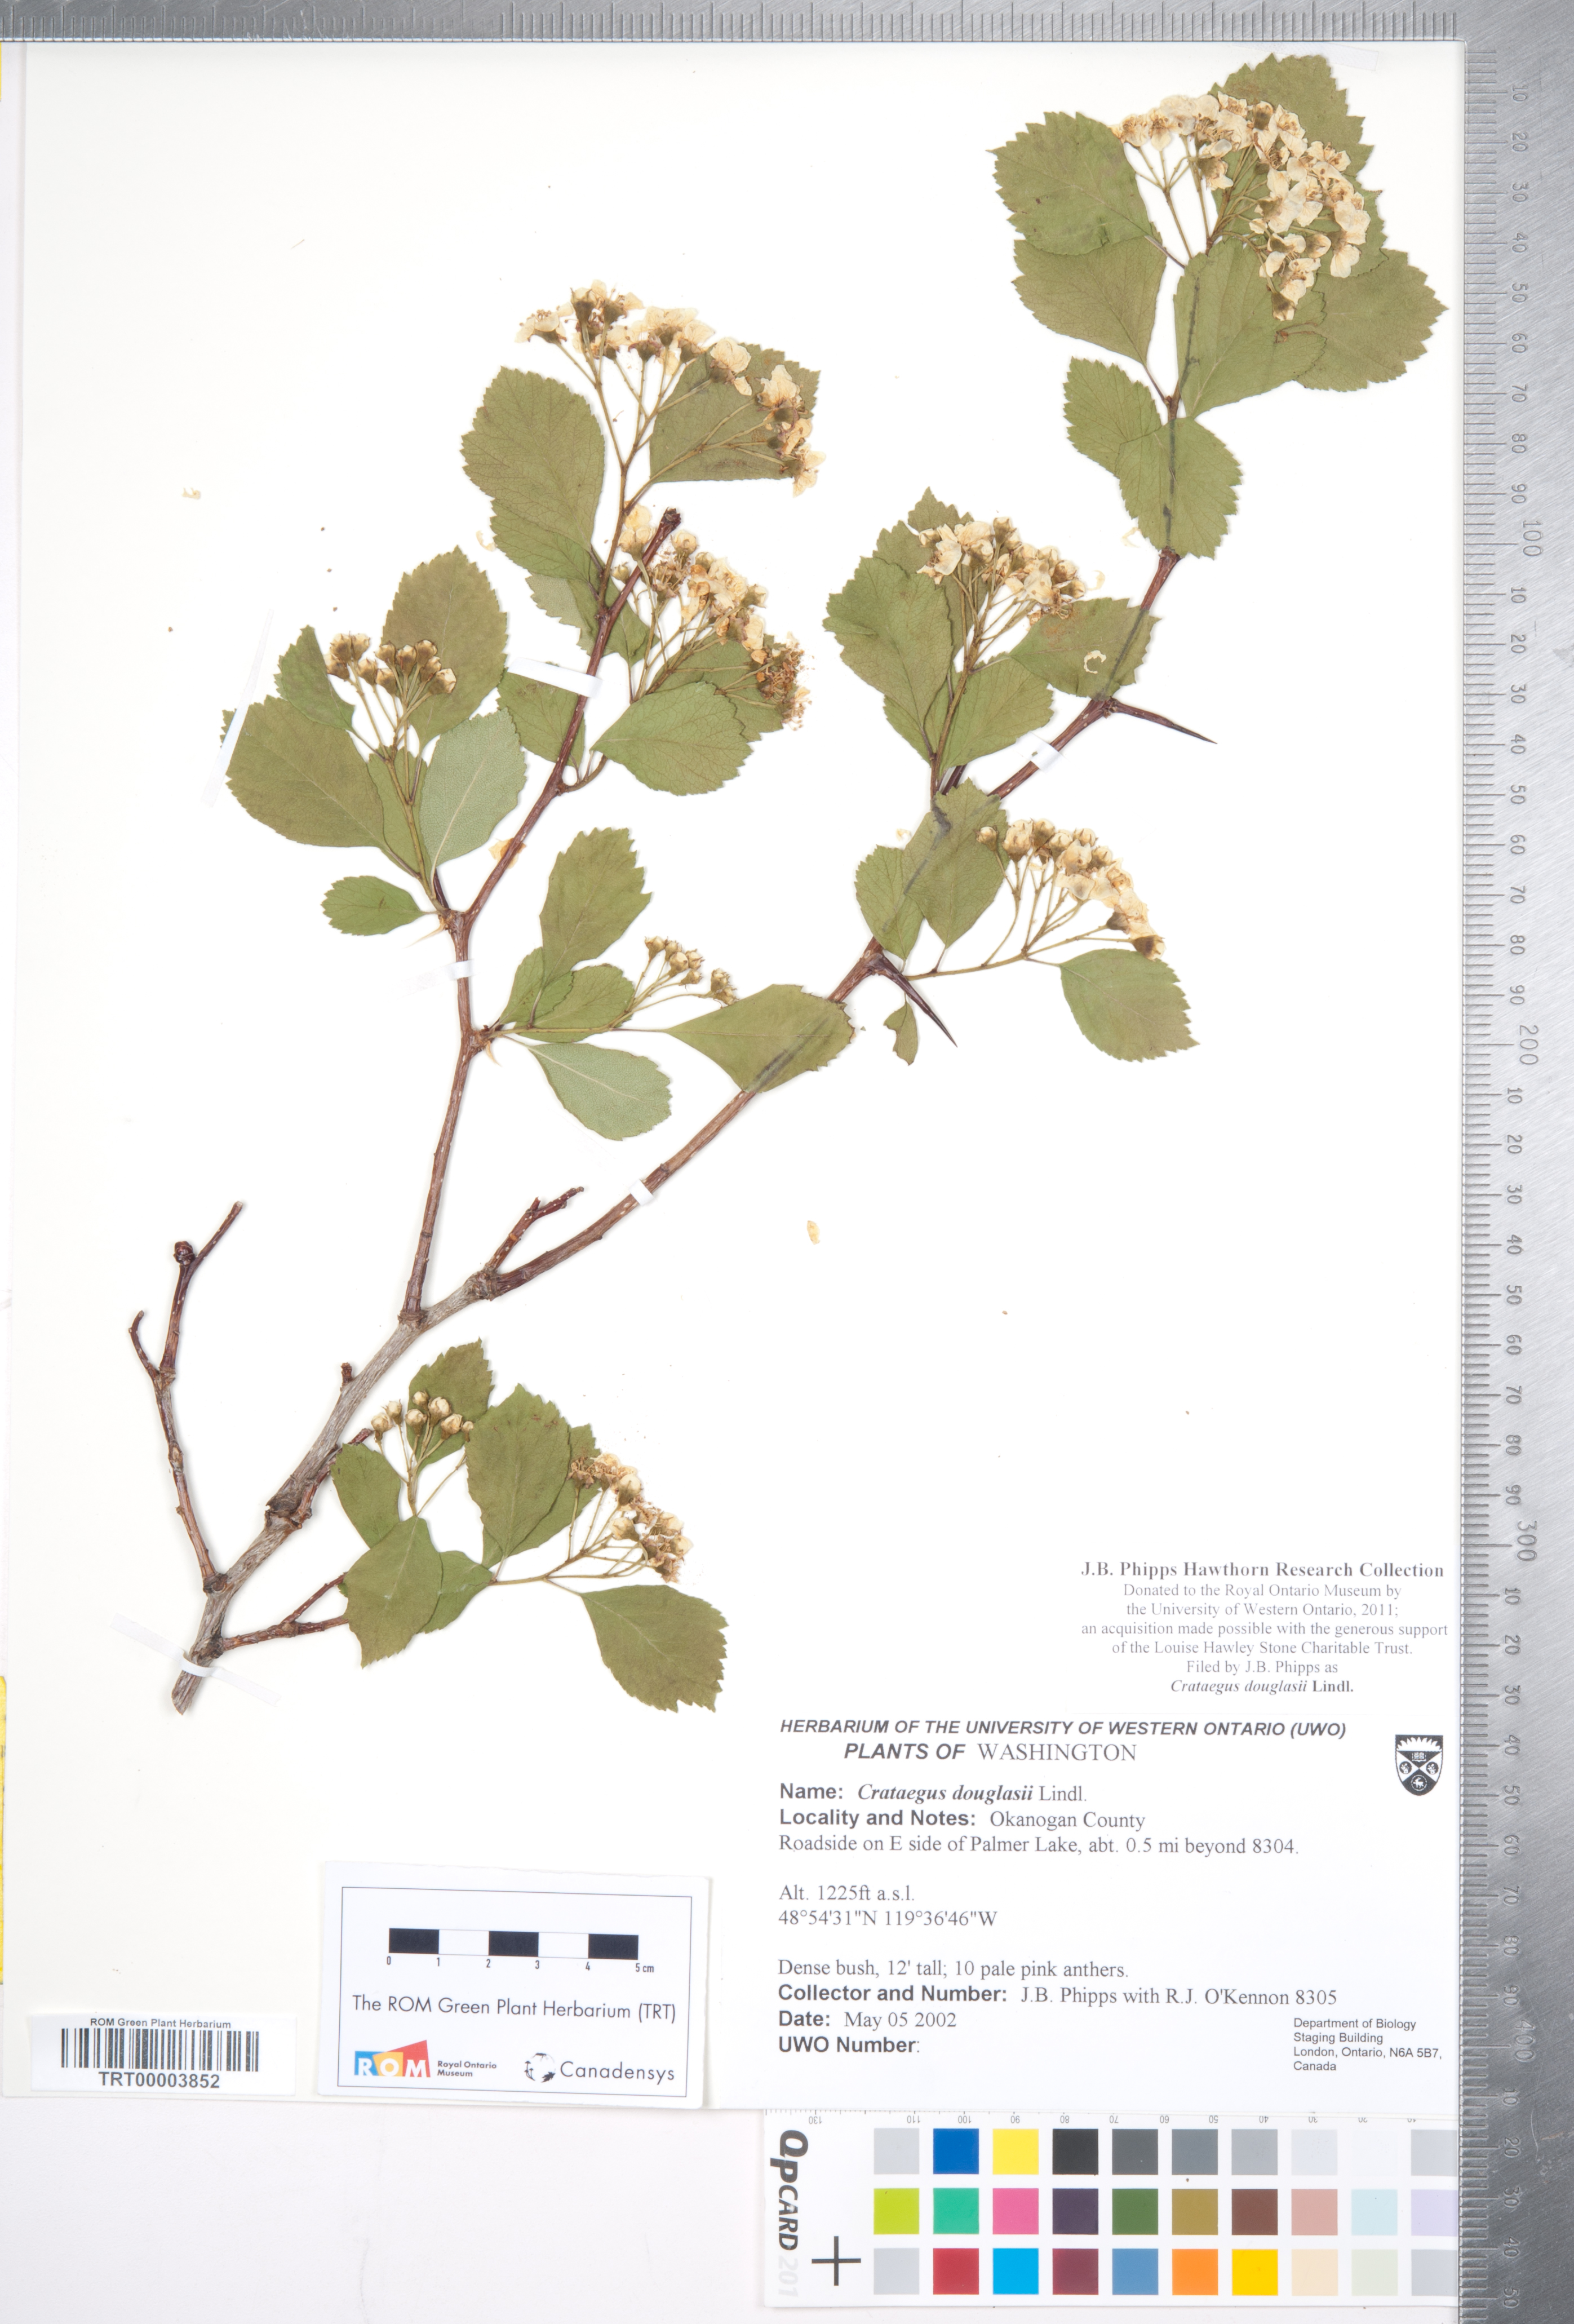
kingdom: Plantae
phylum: Tracheophyta
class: Magnoliopsida
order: Rosales
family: Rosaceae
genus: Crataegus
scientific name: Crataegus douglasii
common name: Black hawthorn
